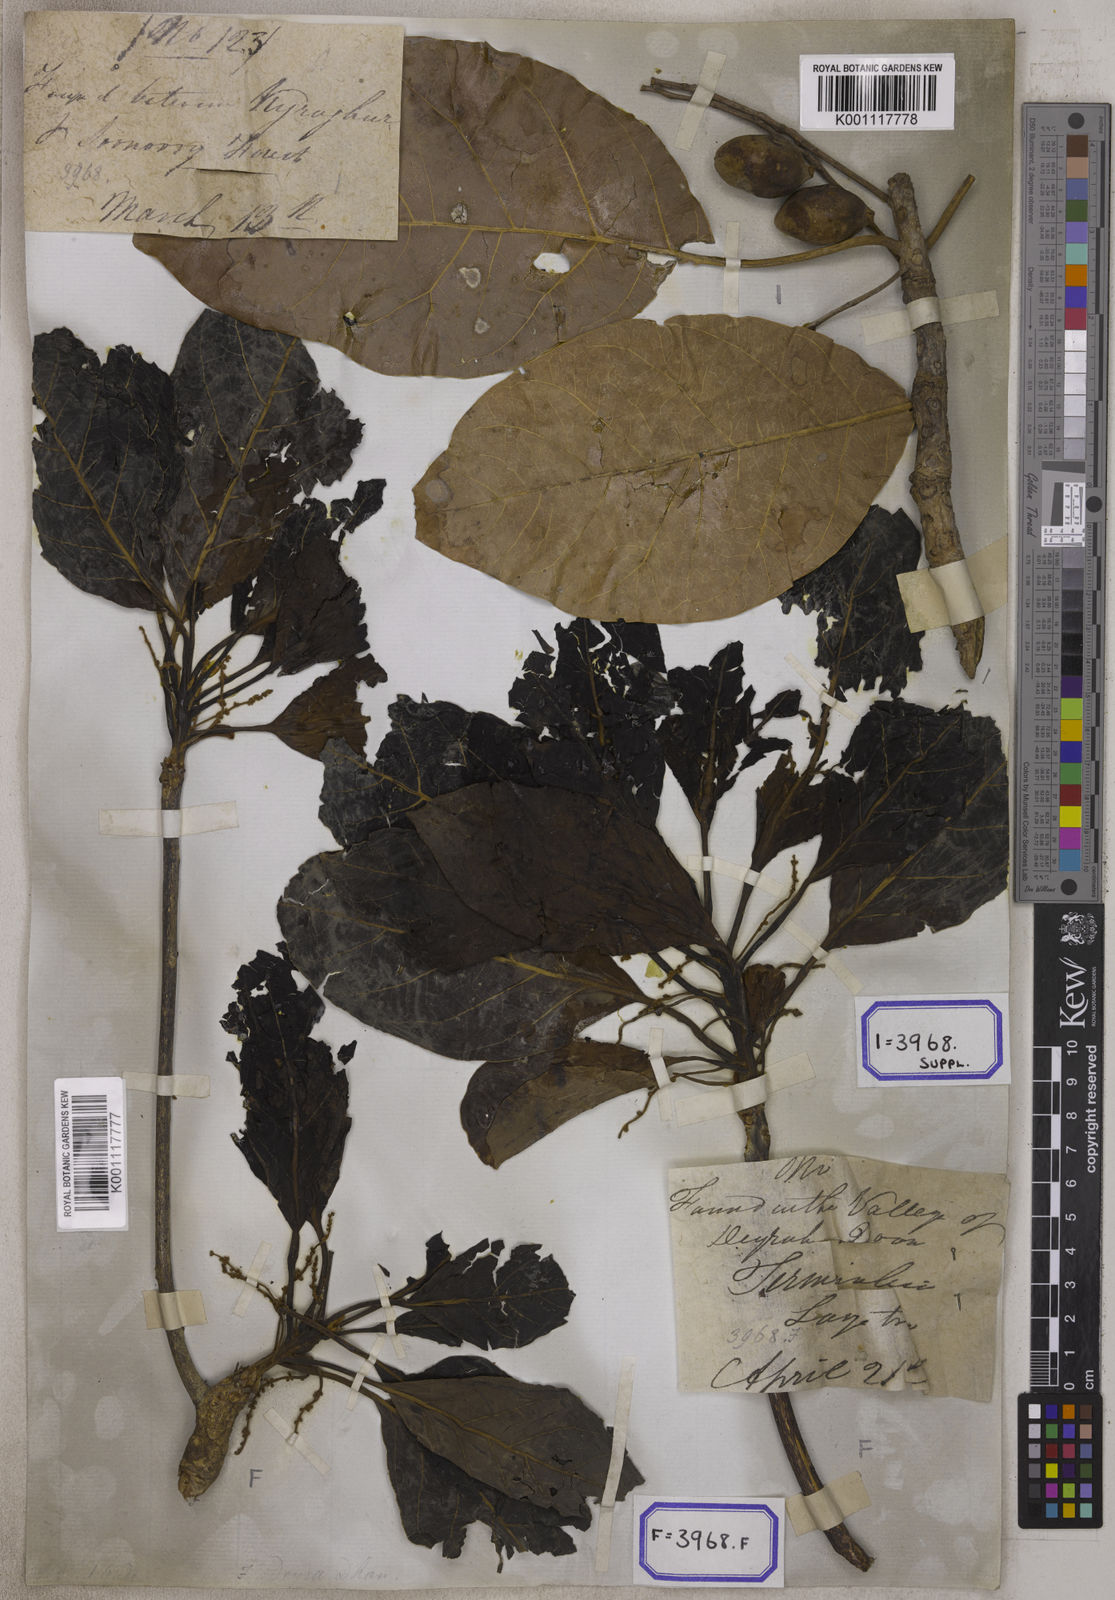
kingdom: Plantae
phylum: Tracheophyta
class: Magnoliopsida
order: Myrtales
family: Combretaceae
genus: Terminalia
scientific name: Terminalia bellirica
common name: Beleric myrobalan
